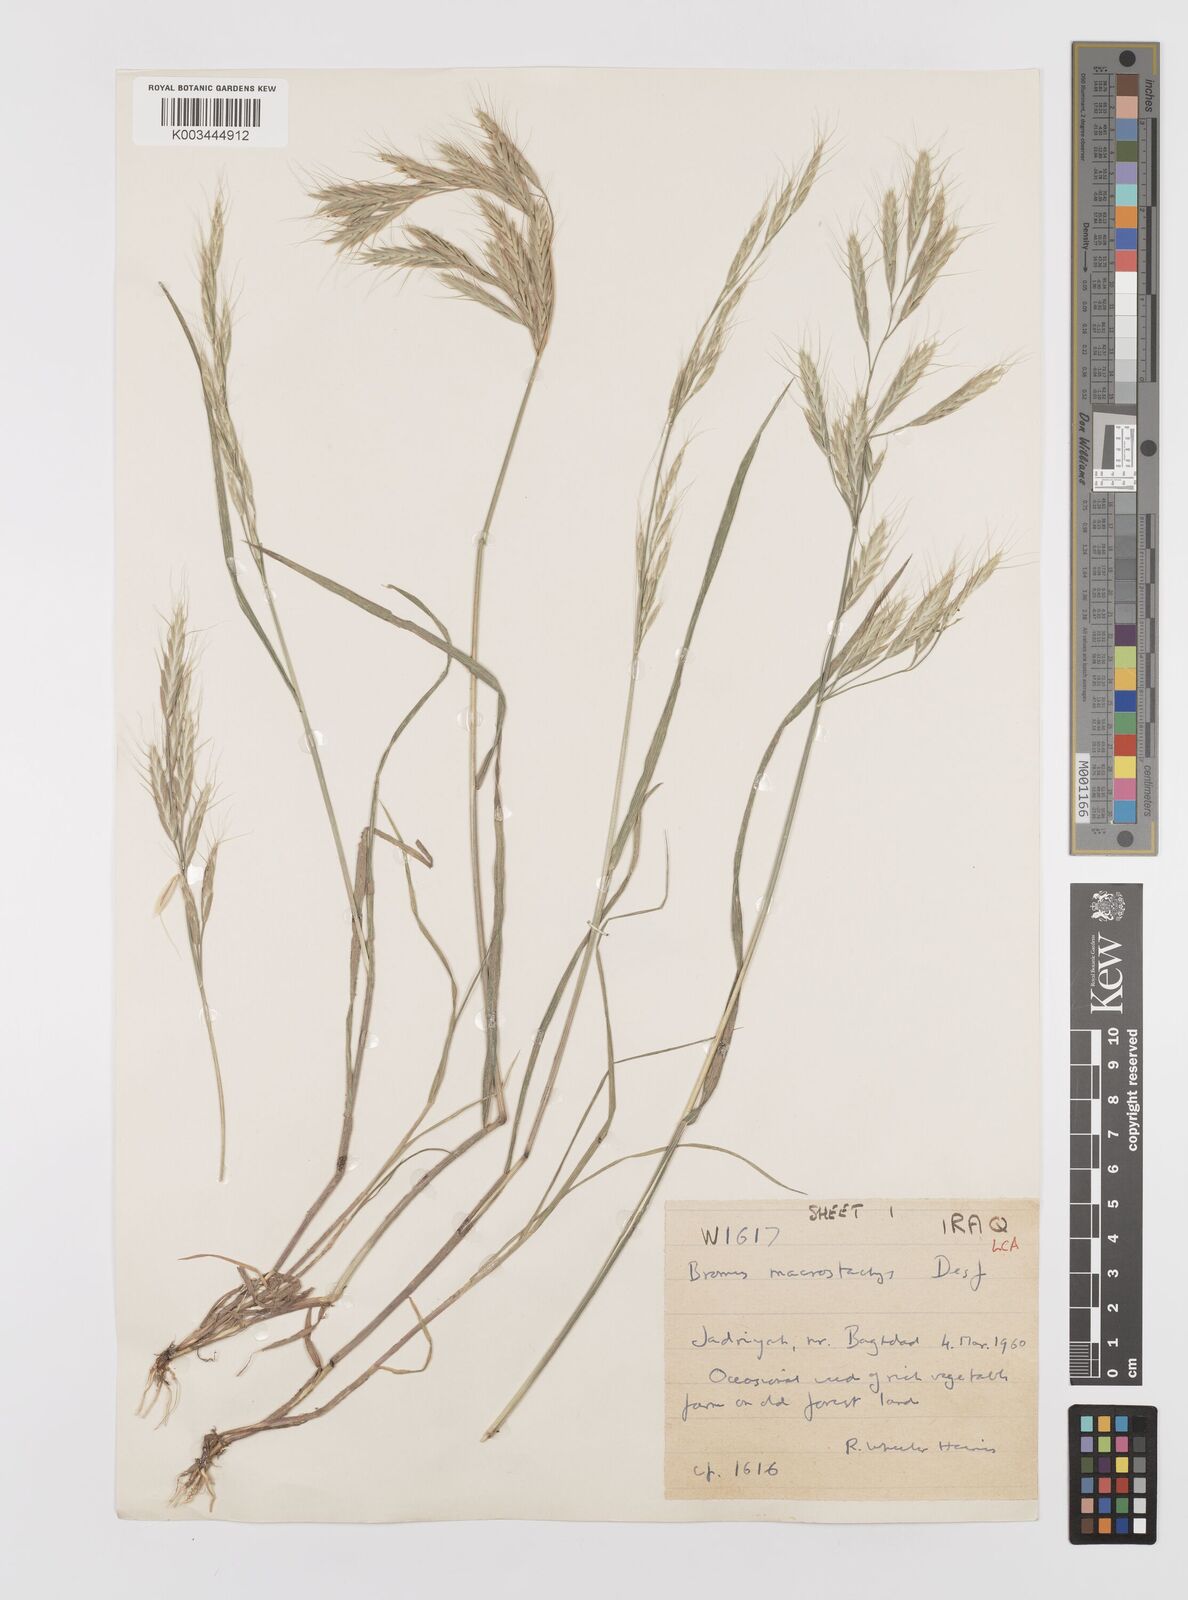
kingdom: Plantae
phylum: Tracheophyta
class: Liliopsida
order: Poales
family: Poaceae
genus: Bromus
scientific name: Bromus lanceolatus
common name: Mediterranean brome
